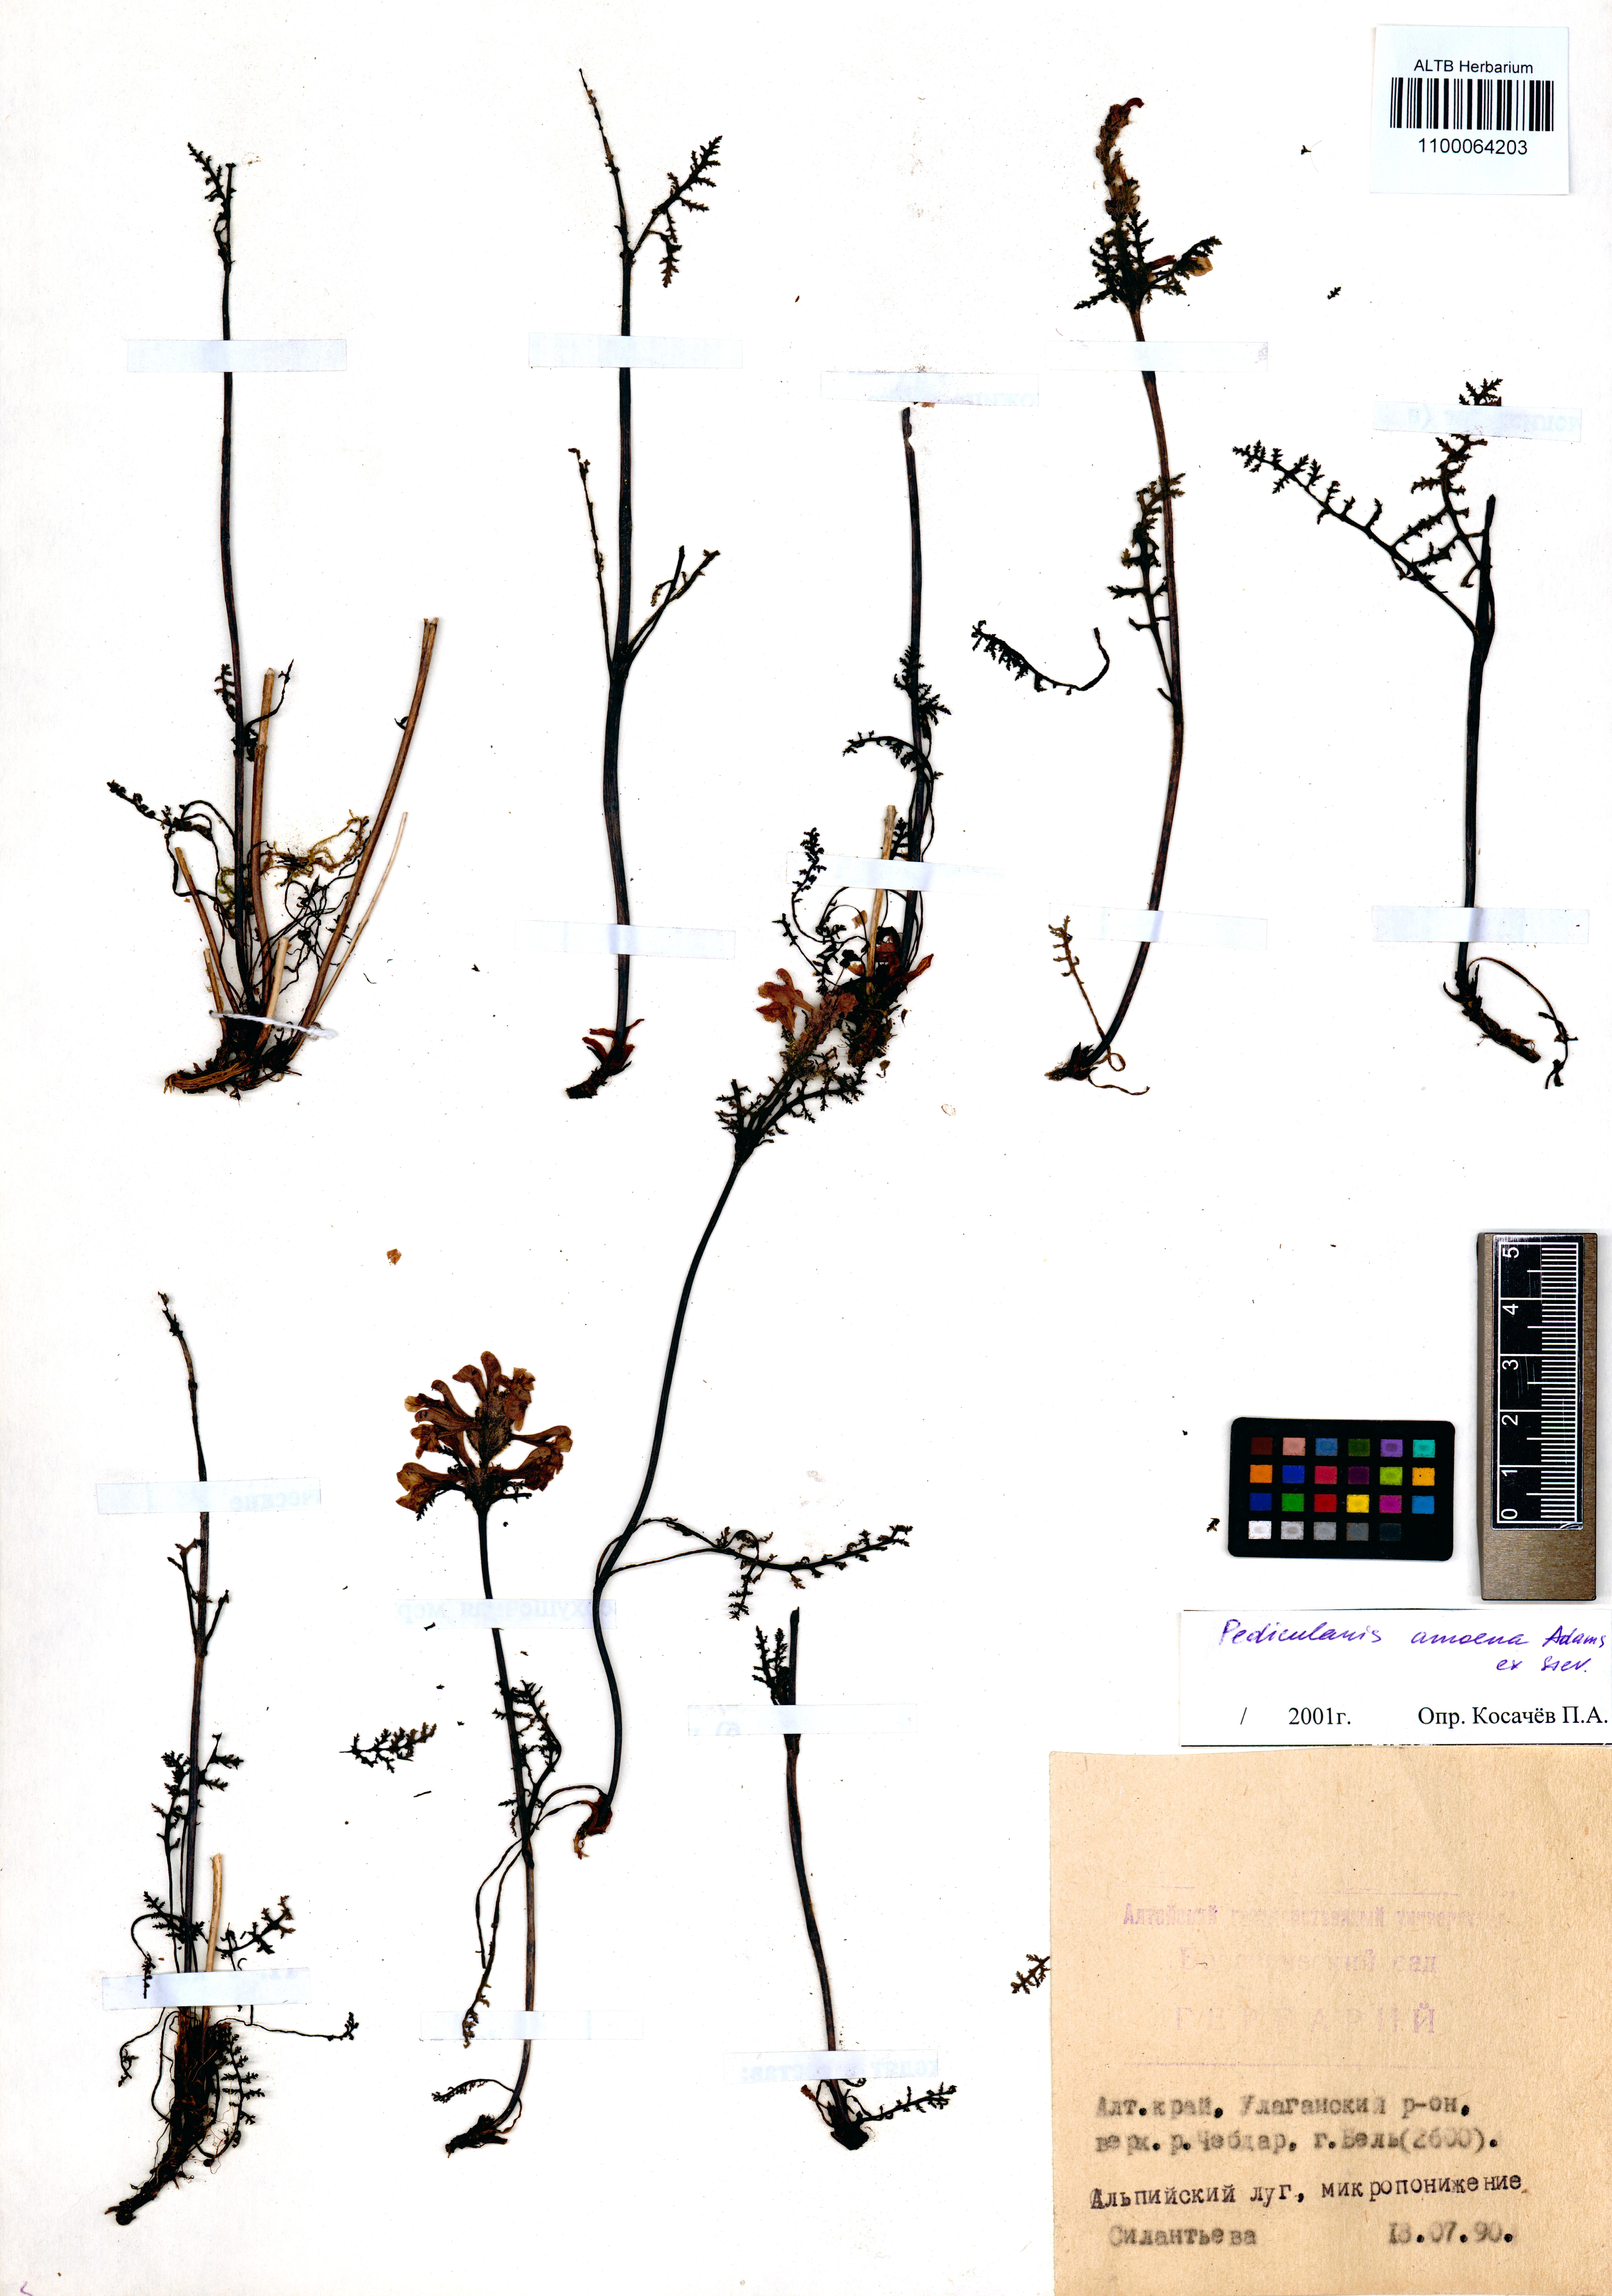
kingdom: Plantae
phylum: Tracheophyta
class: Magnoliopsida
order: Lamiales
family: Orobanchaceae
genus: Pedicularis
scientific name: Pedicularis amoena
